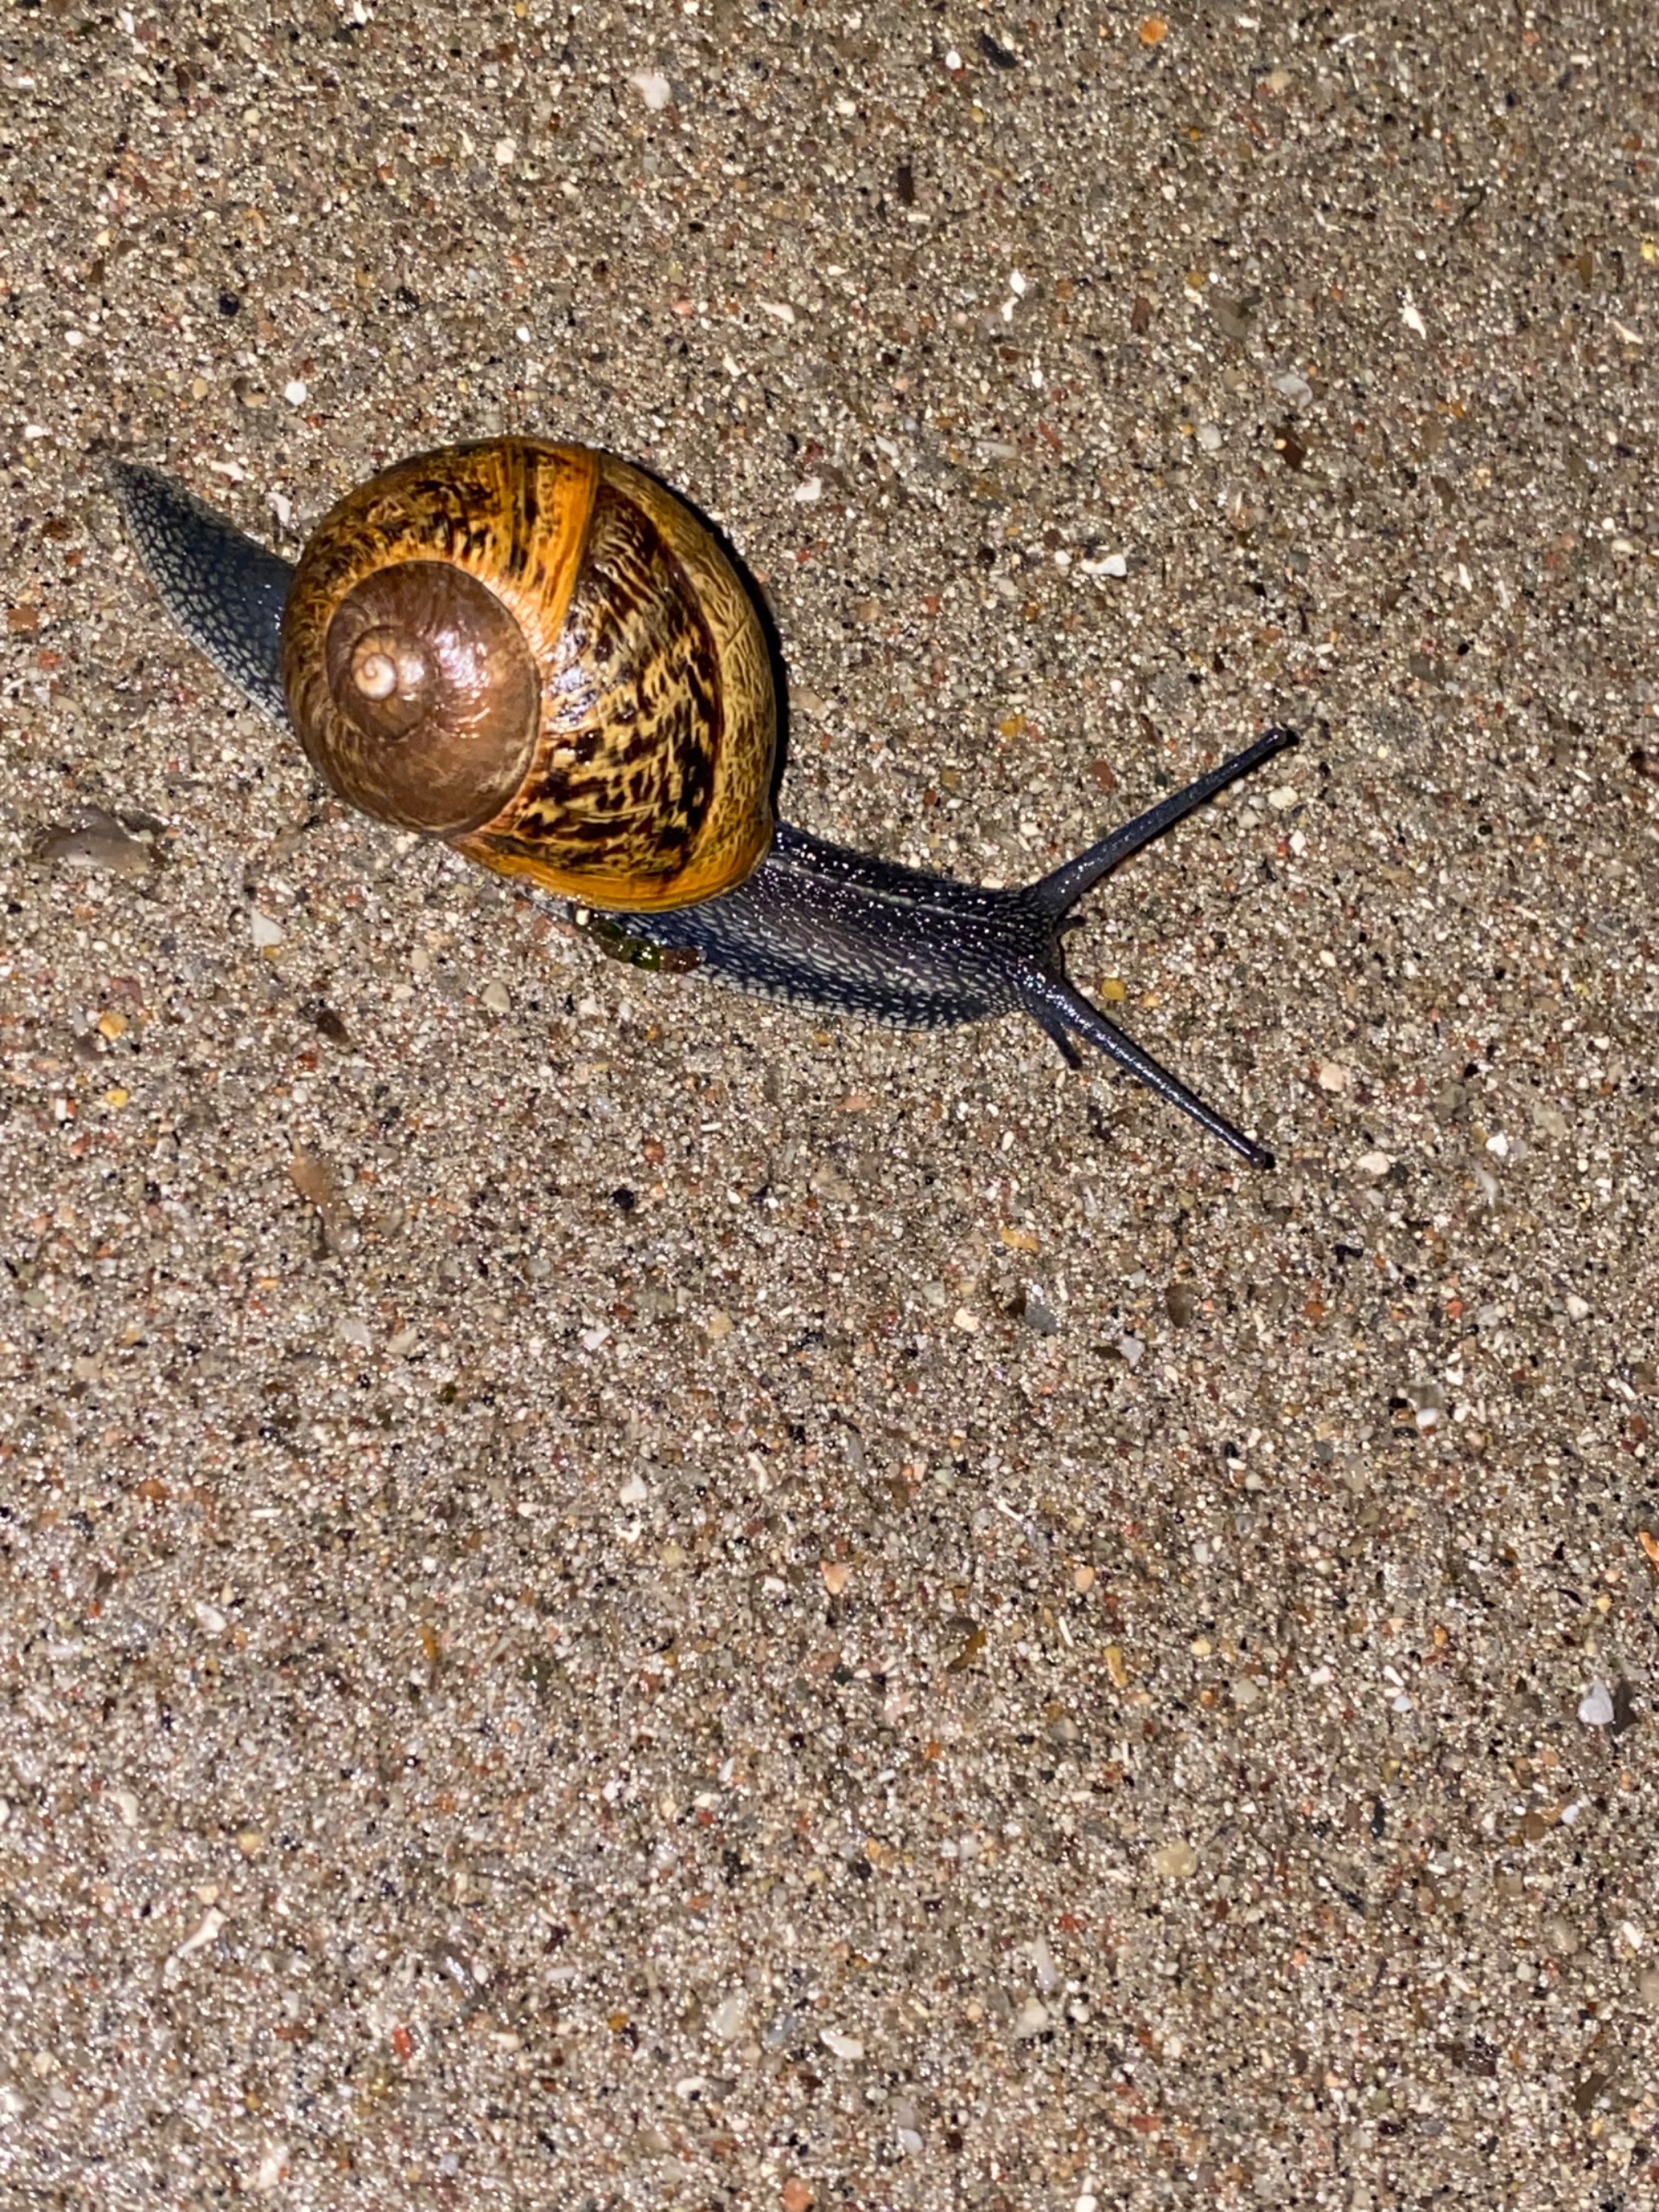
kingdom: Animalia
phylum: Mollusca
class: Gastropoda
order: Stylommatophora
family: Helicidae
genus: Cornu
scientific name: Cornu aspersum
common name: Plettet voldsnegl
